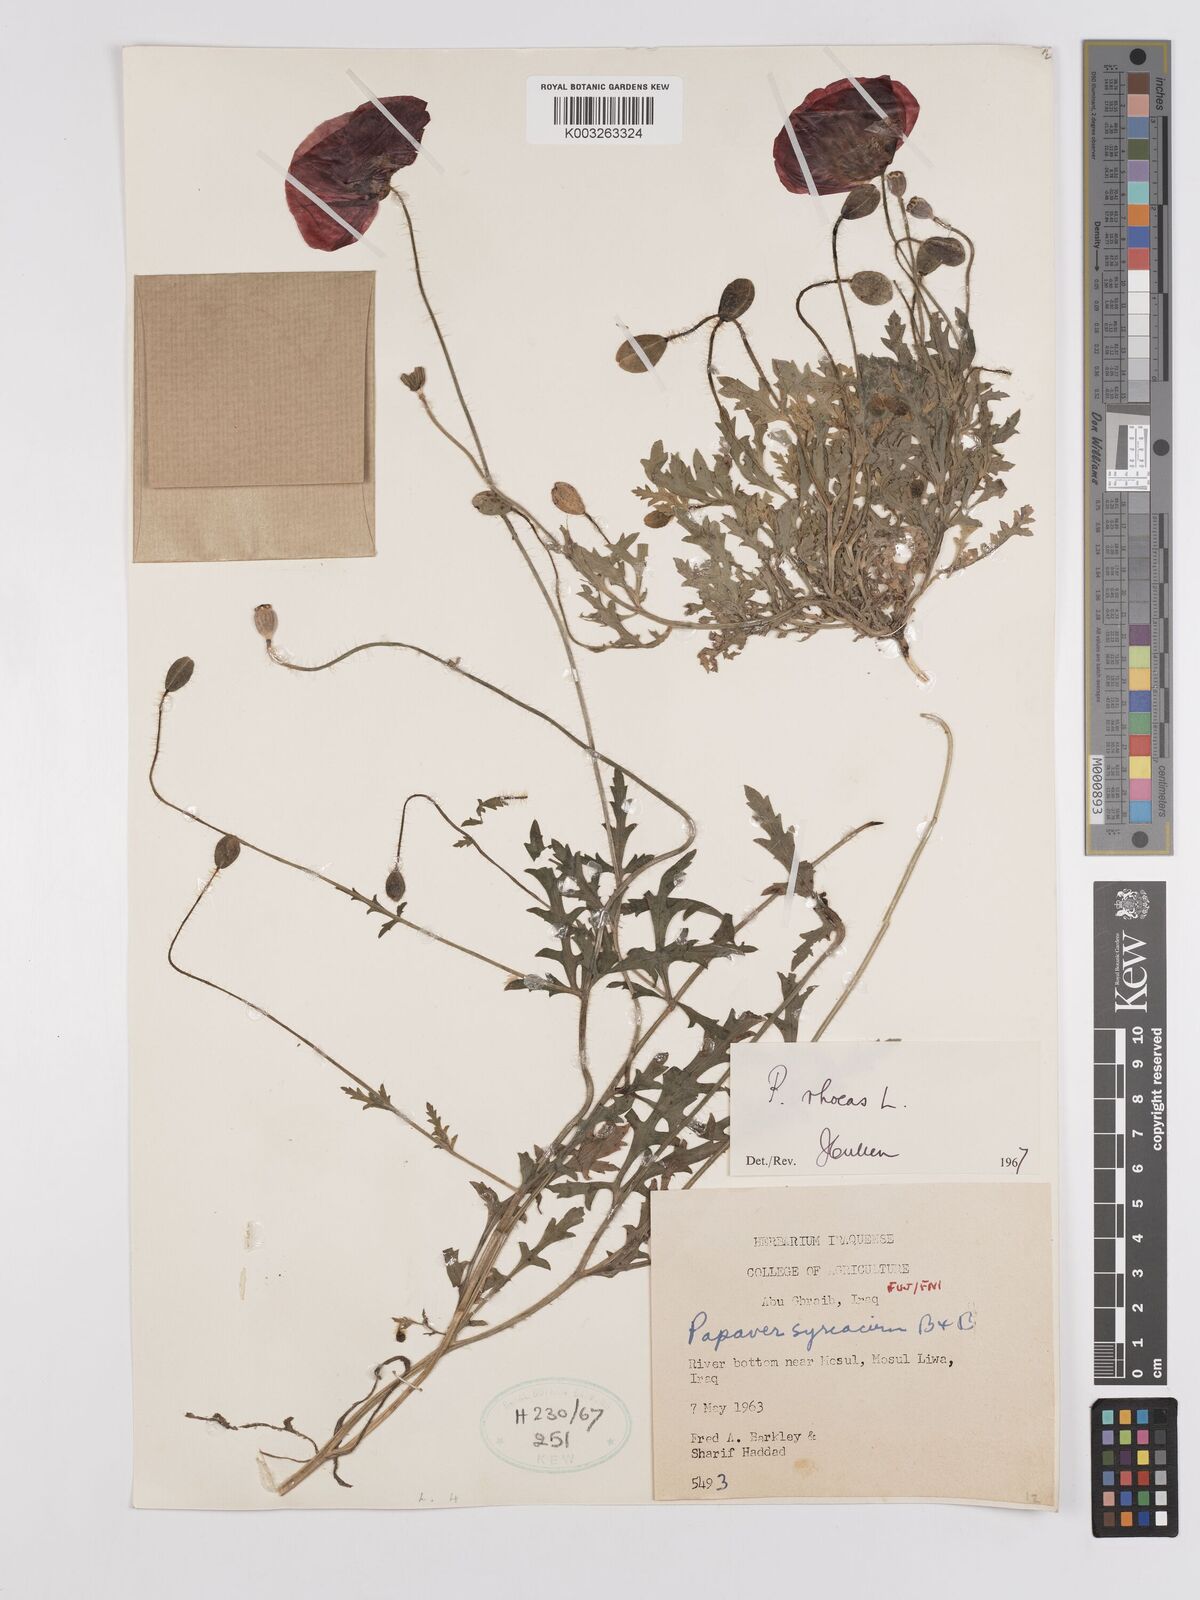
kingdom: Plantae
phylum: Tracheophyta
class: Magnoliopsida
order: Ranunculales
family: Papaveraceae
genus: Papaver
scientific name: Papaver rhoeas
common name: Corn poppy
